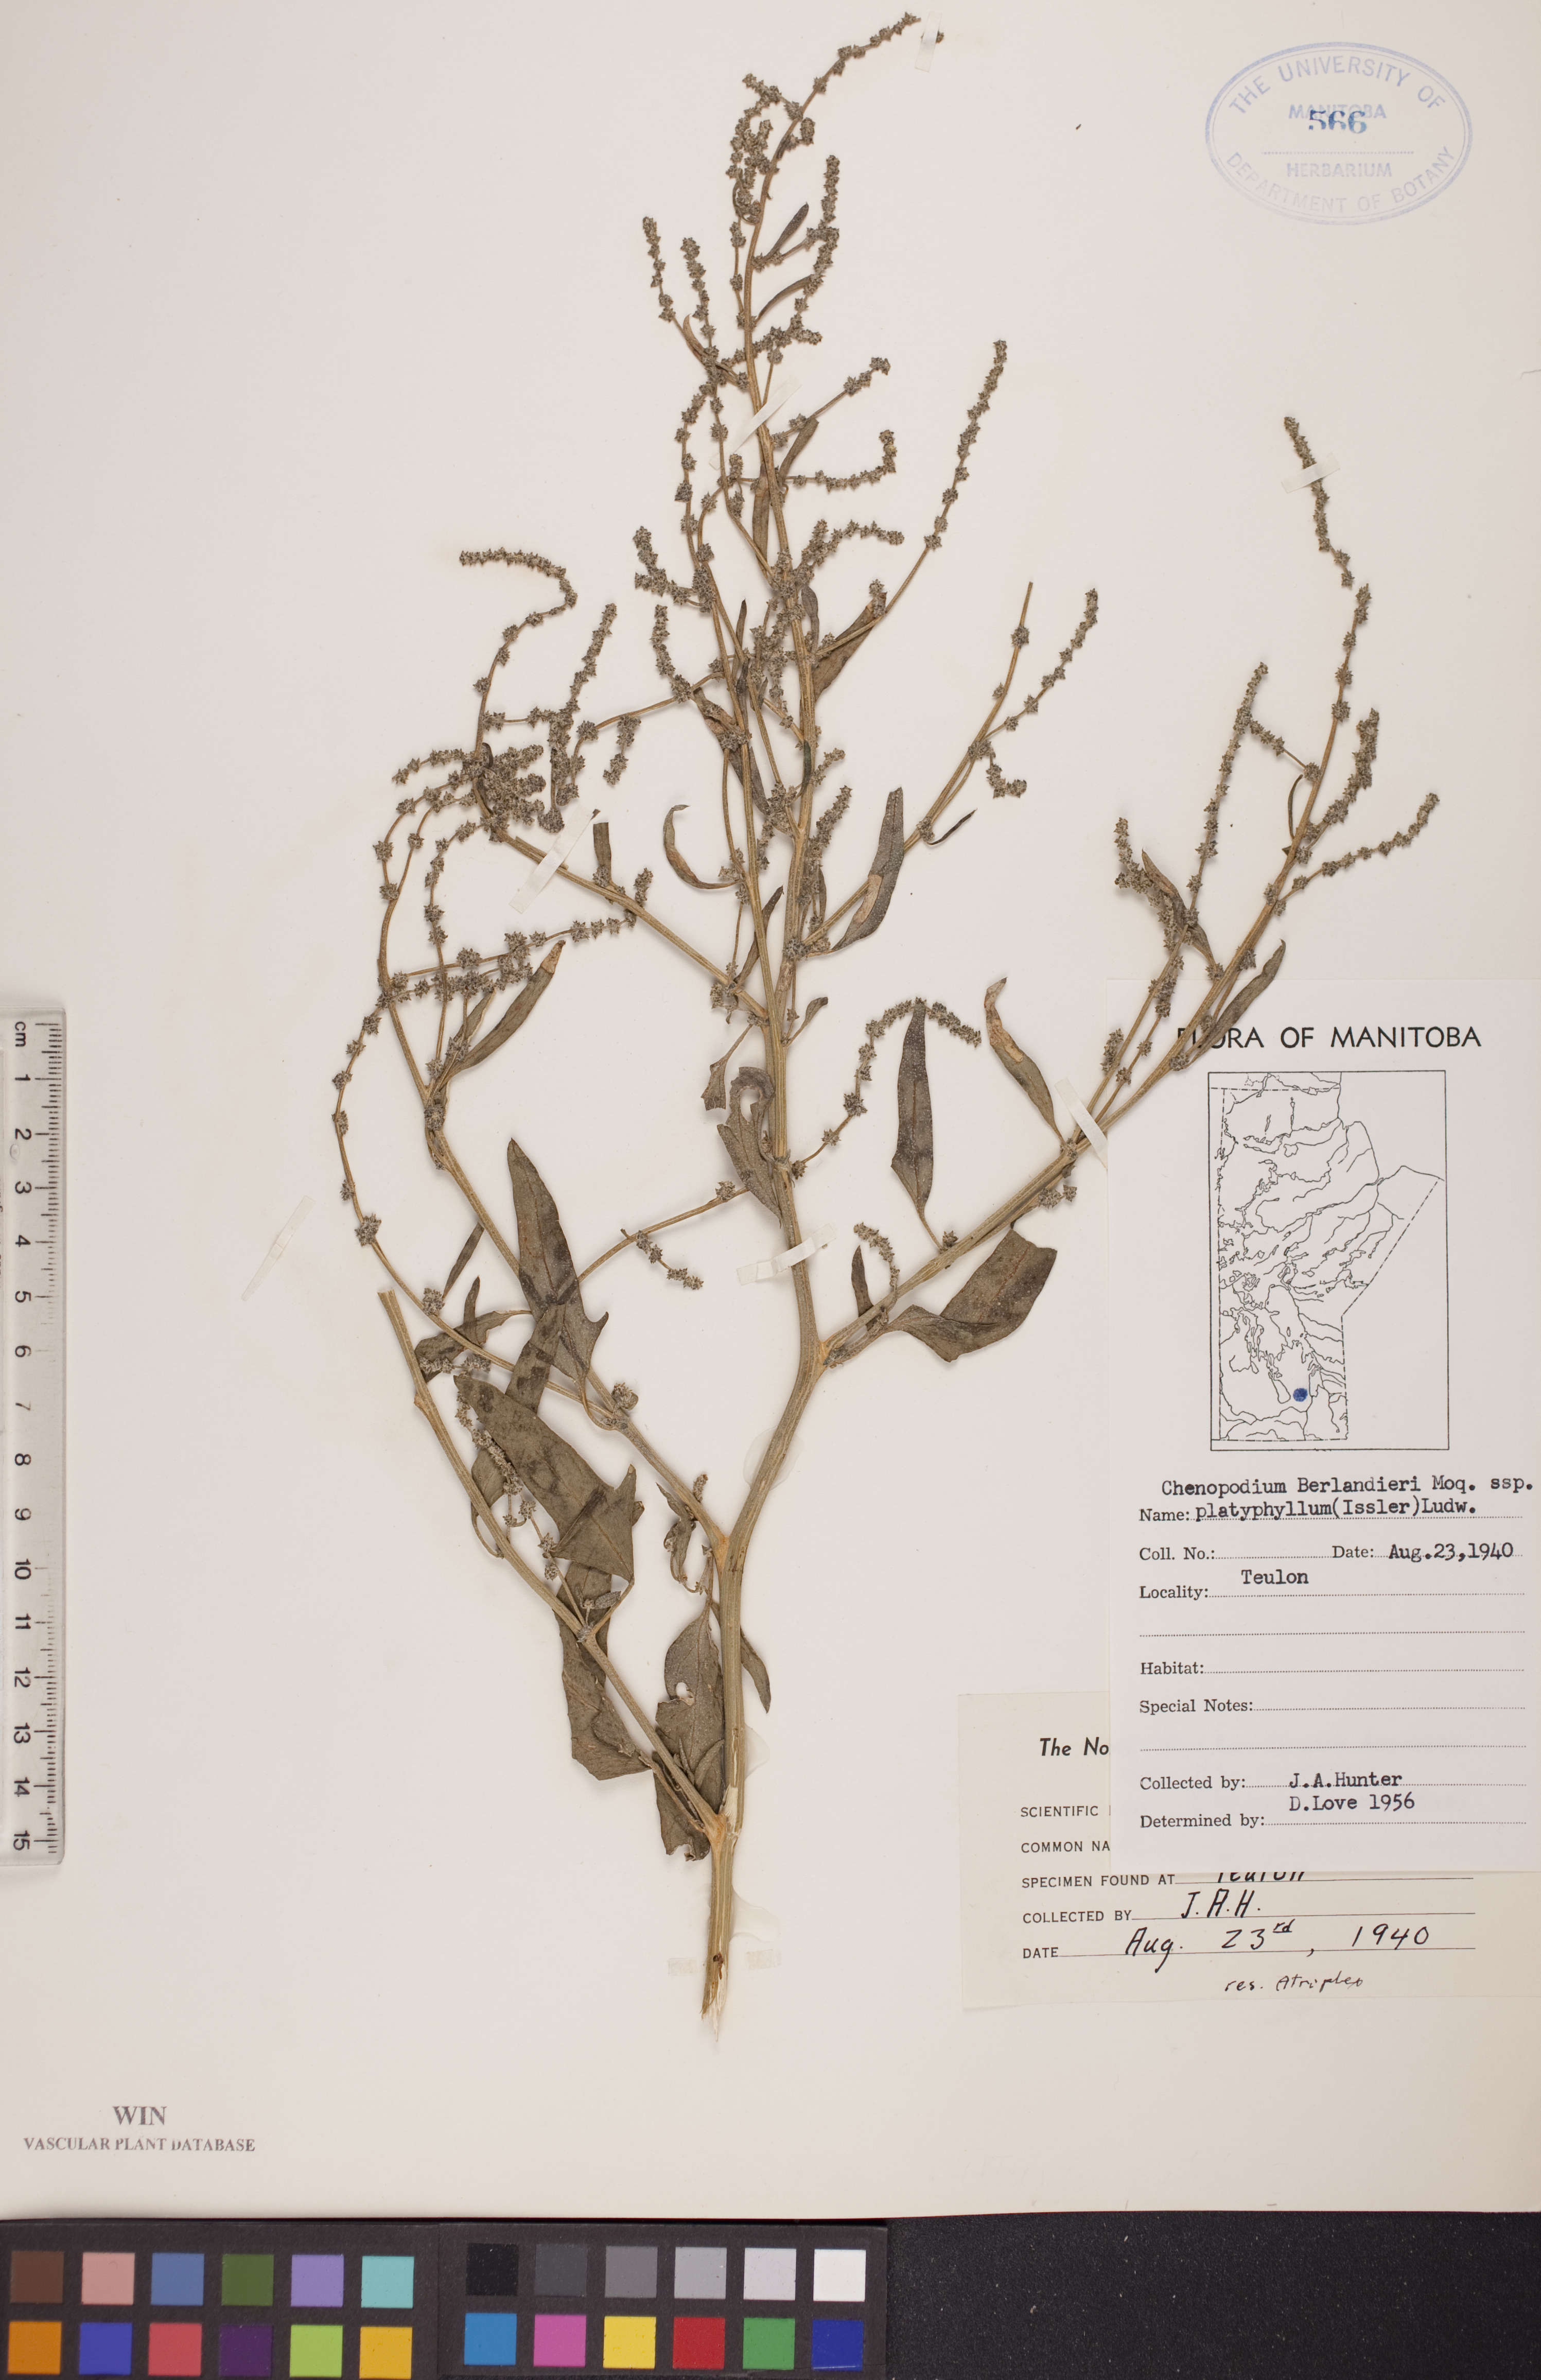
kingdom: Plantae
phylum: Tracheophyta
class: Magnoliopsida
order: Caryophyllales
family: Amaranthaceae
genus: Chenopodium
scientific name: Chenopodium berlandieri
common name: Pit-seed goosefoot
